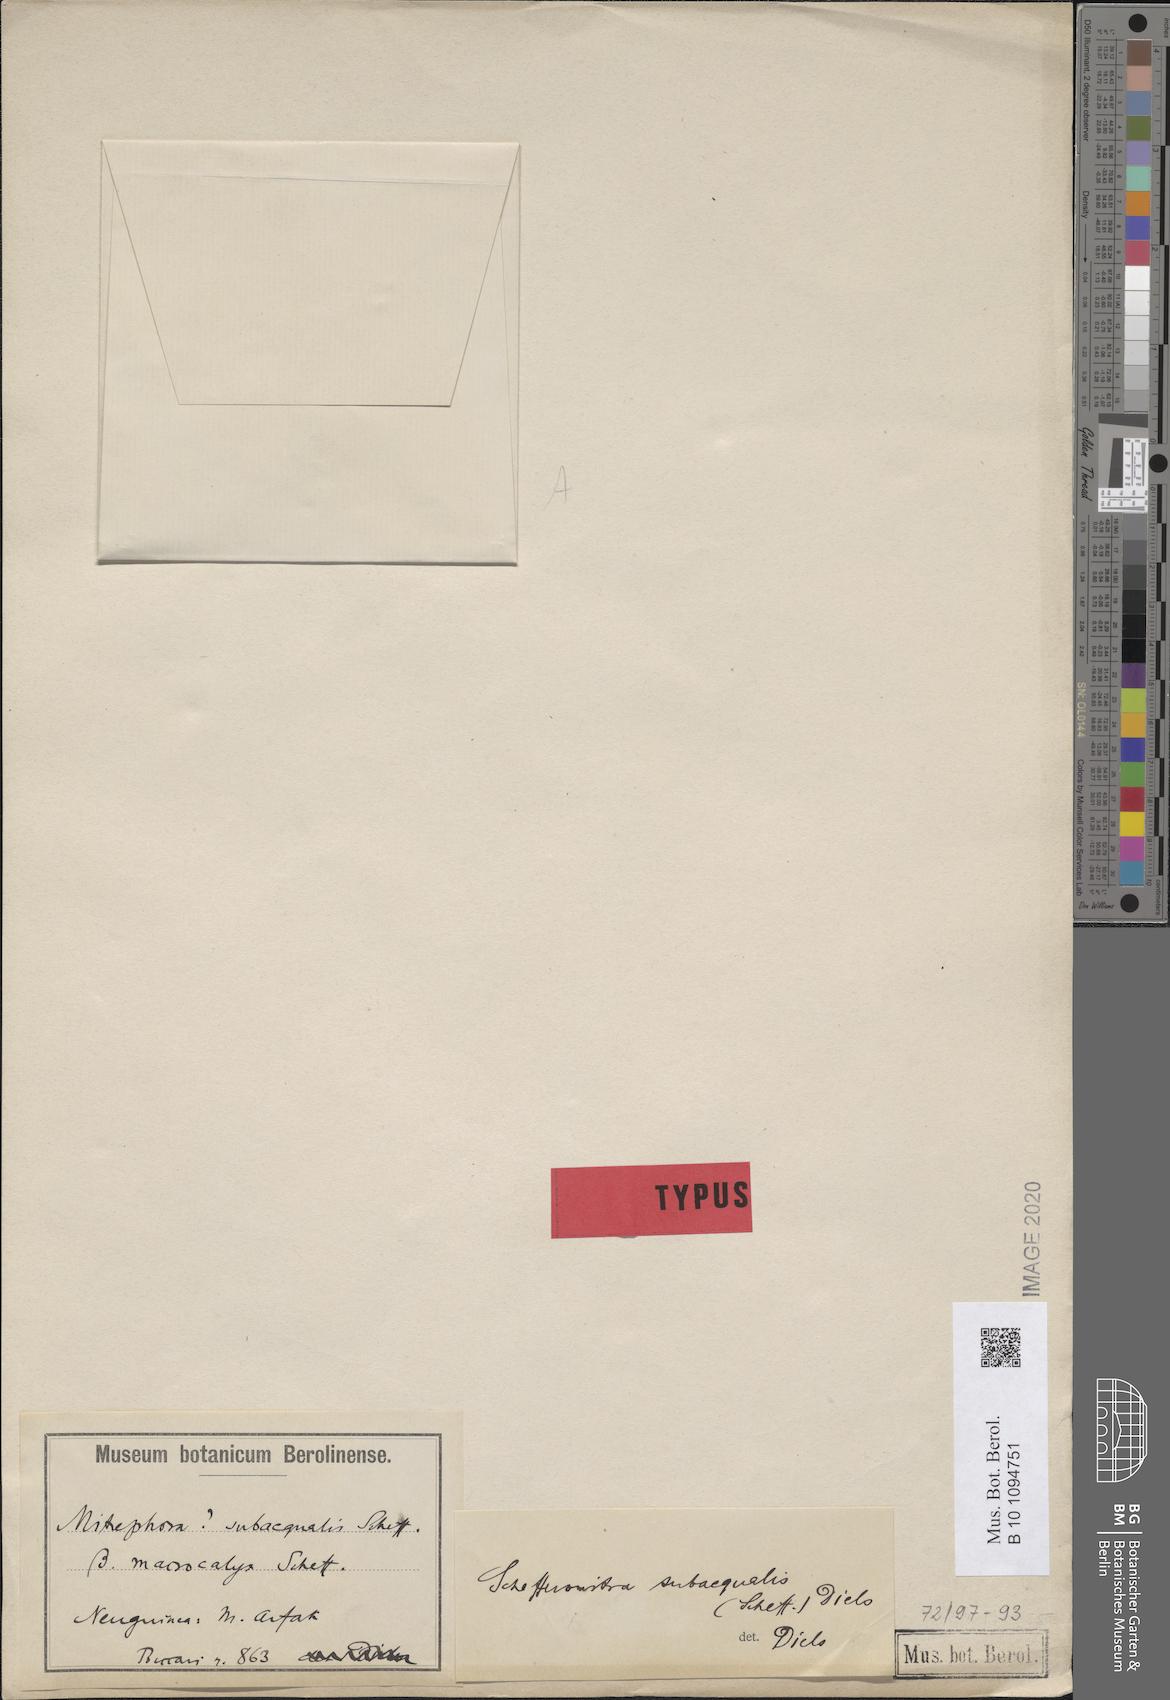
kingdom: Plantae
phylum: Tracheophyta
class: Magnoliopsida
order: Magnoliales
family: Annonaceae
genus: Schefferomitra
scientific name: Schefferomitra subaequalis
